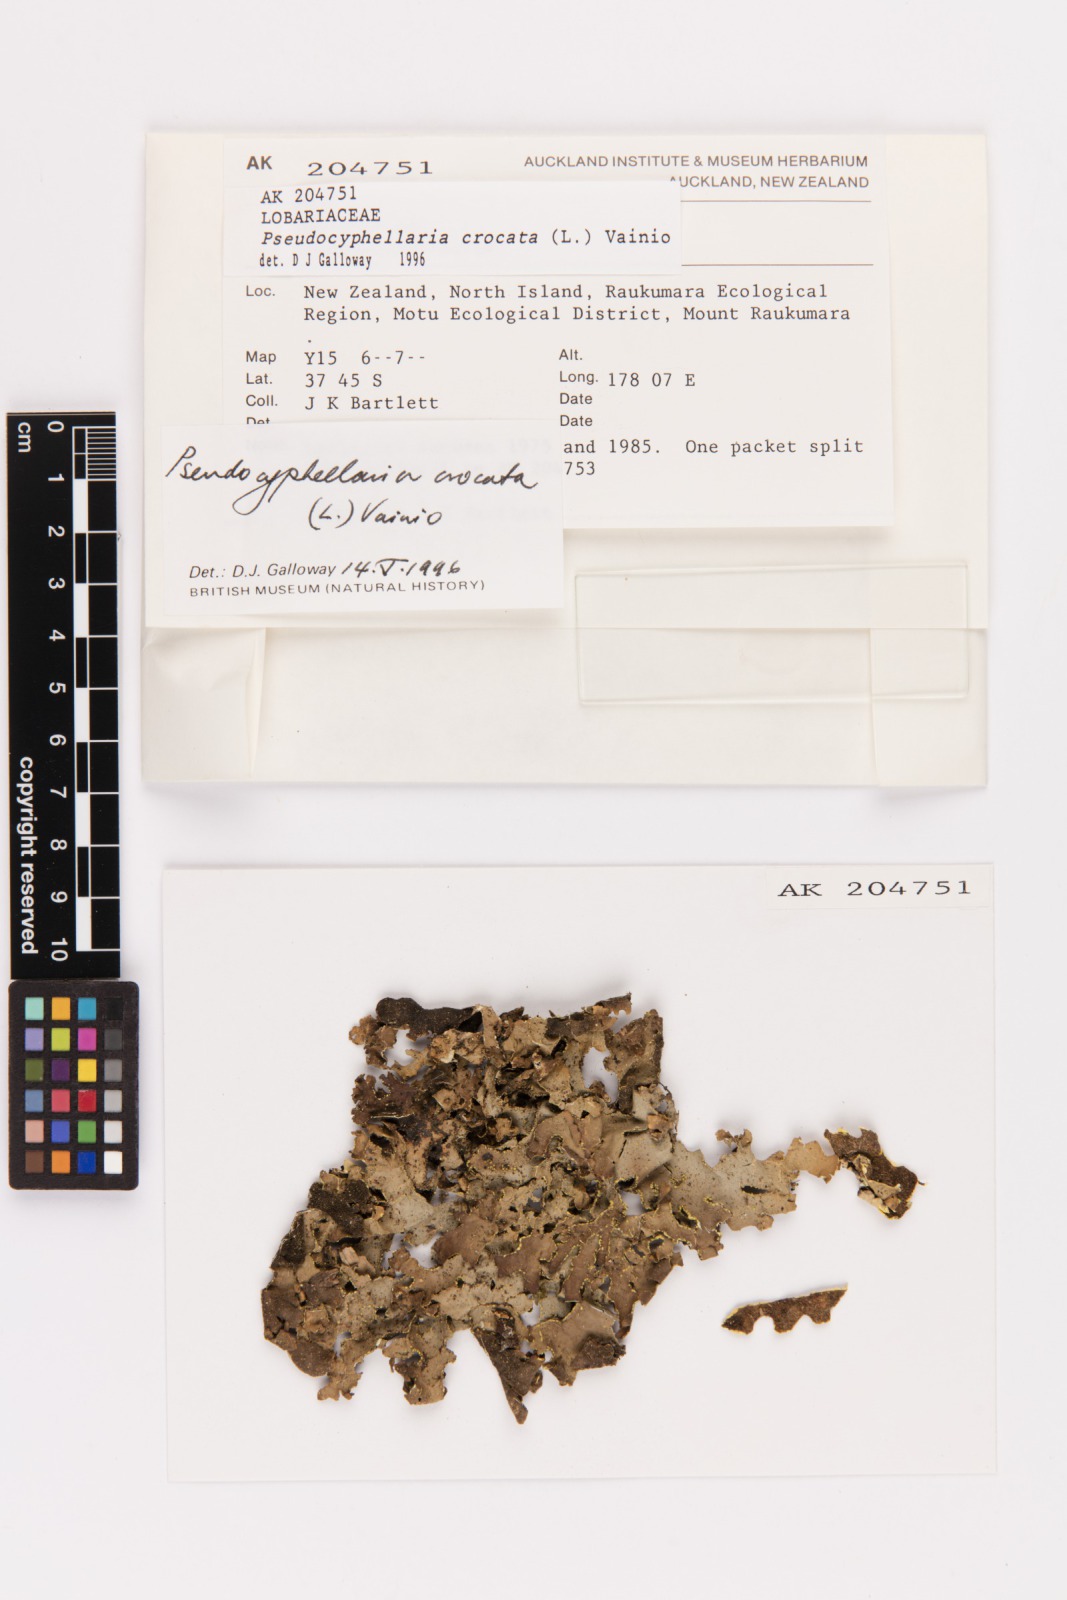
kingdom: Fungi
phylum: Ascomycota
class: Lecanoromycetes
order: Peltigerales
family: Lobariaceae
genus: Pseudocyphellaria
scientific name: Pseudocyphellaria crocata
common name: Golden specklebelly
